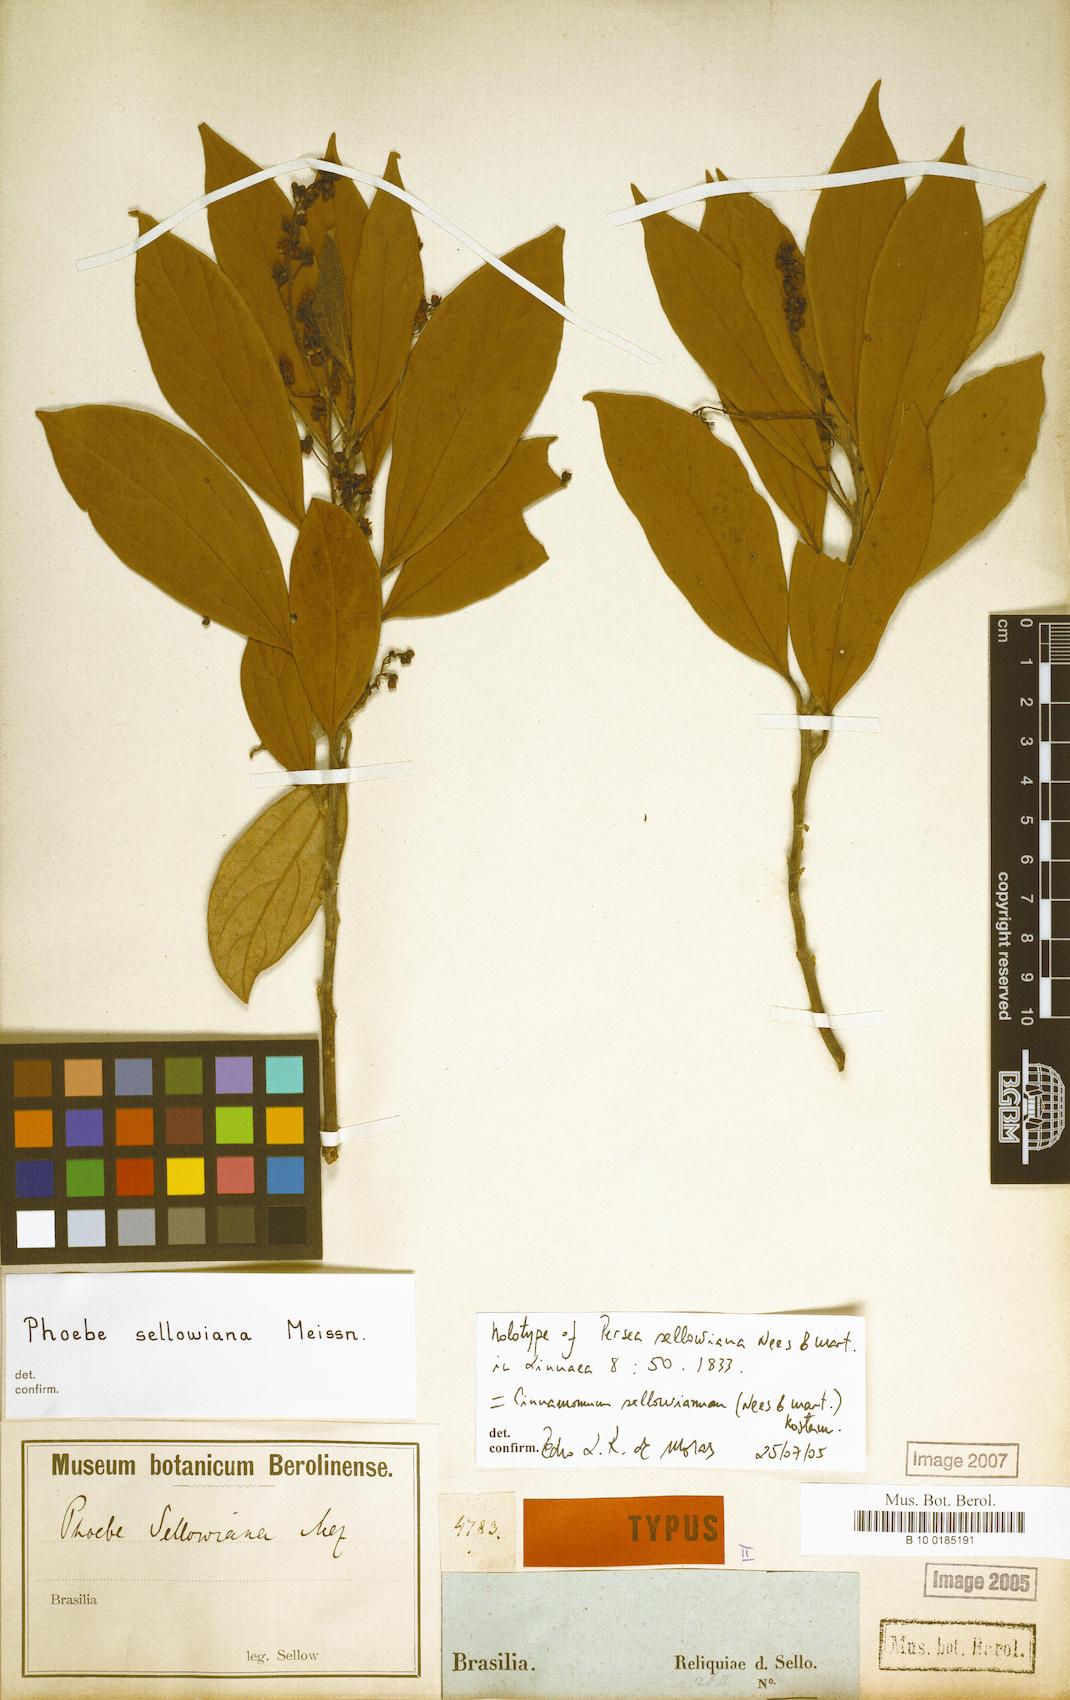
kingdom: Plantae
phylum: Tracheophyta
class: Magnoliopsida
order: Laurales
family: Lauraceae
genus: Aiouea
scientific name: Aiouea sellowiana
